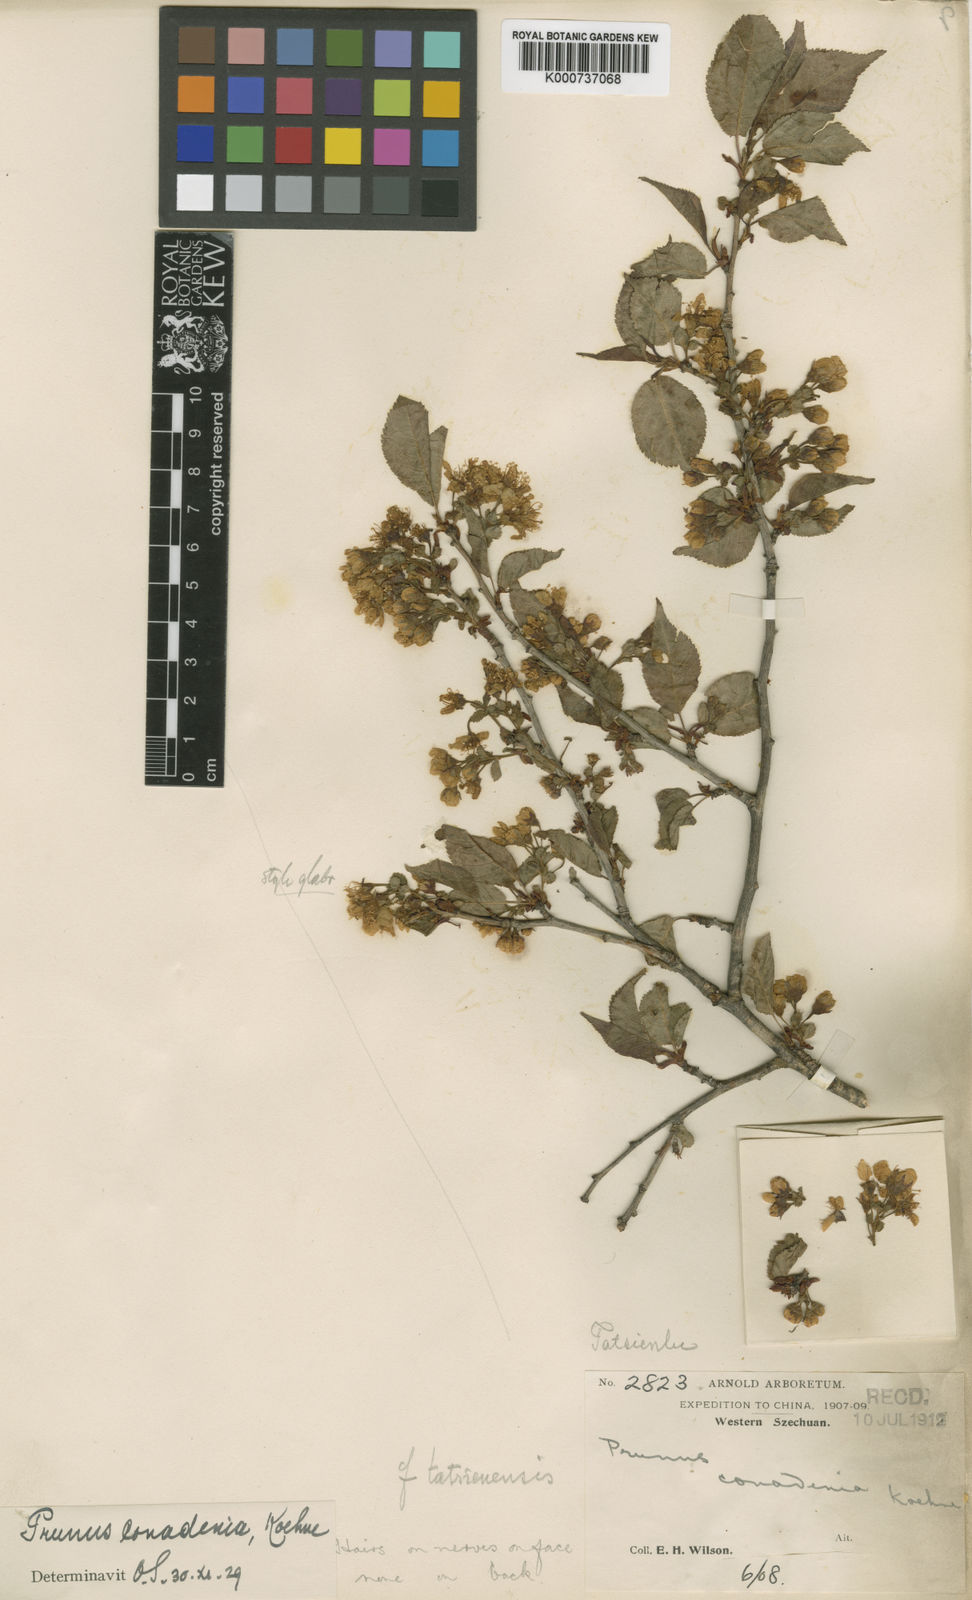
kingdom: Plantae
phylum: Tracheophyta
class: Magnoliopsida
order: Rosales
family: Rosaceae
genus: Prunus
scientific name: Prunus conadenia
